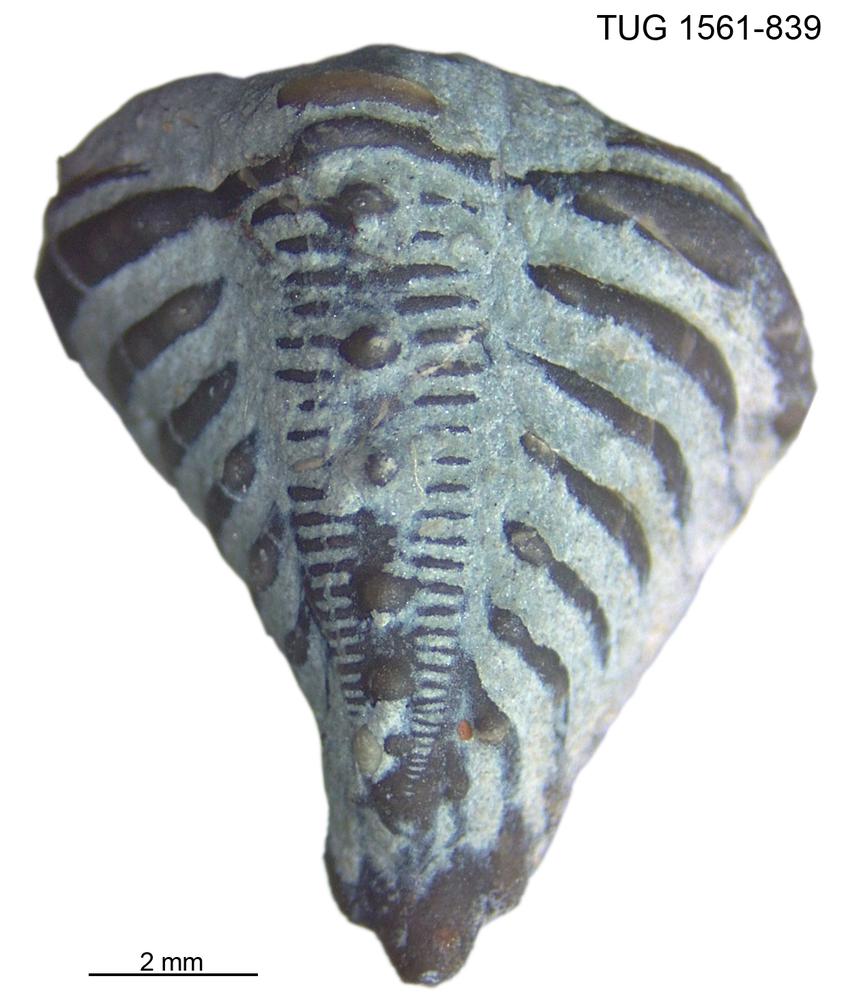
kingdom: Animalia
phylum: Arthropoda
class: Trilobita
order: Phacopida
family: Encrinuridae
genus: Encrinurus
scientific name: Encrinurus punctatus
